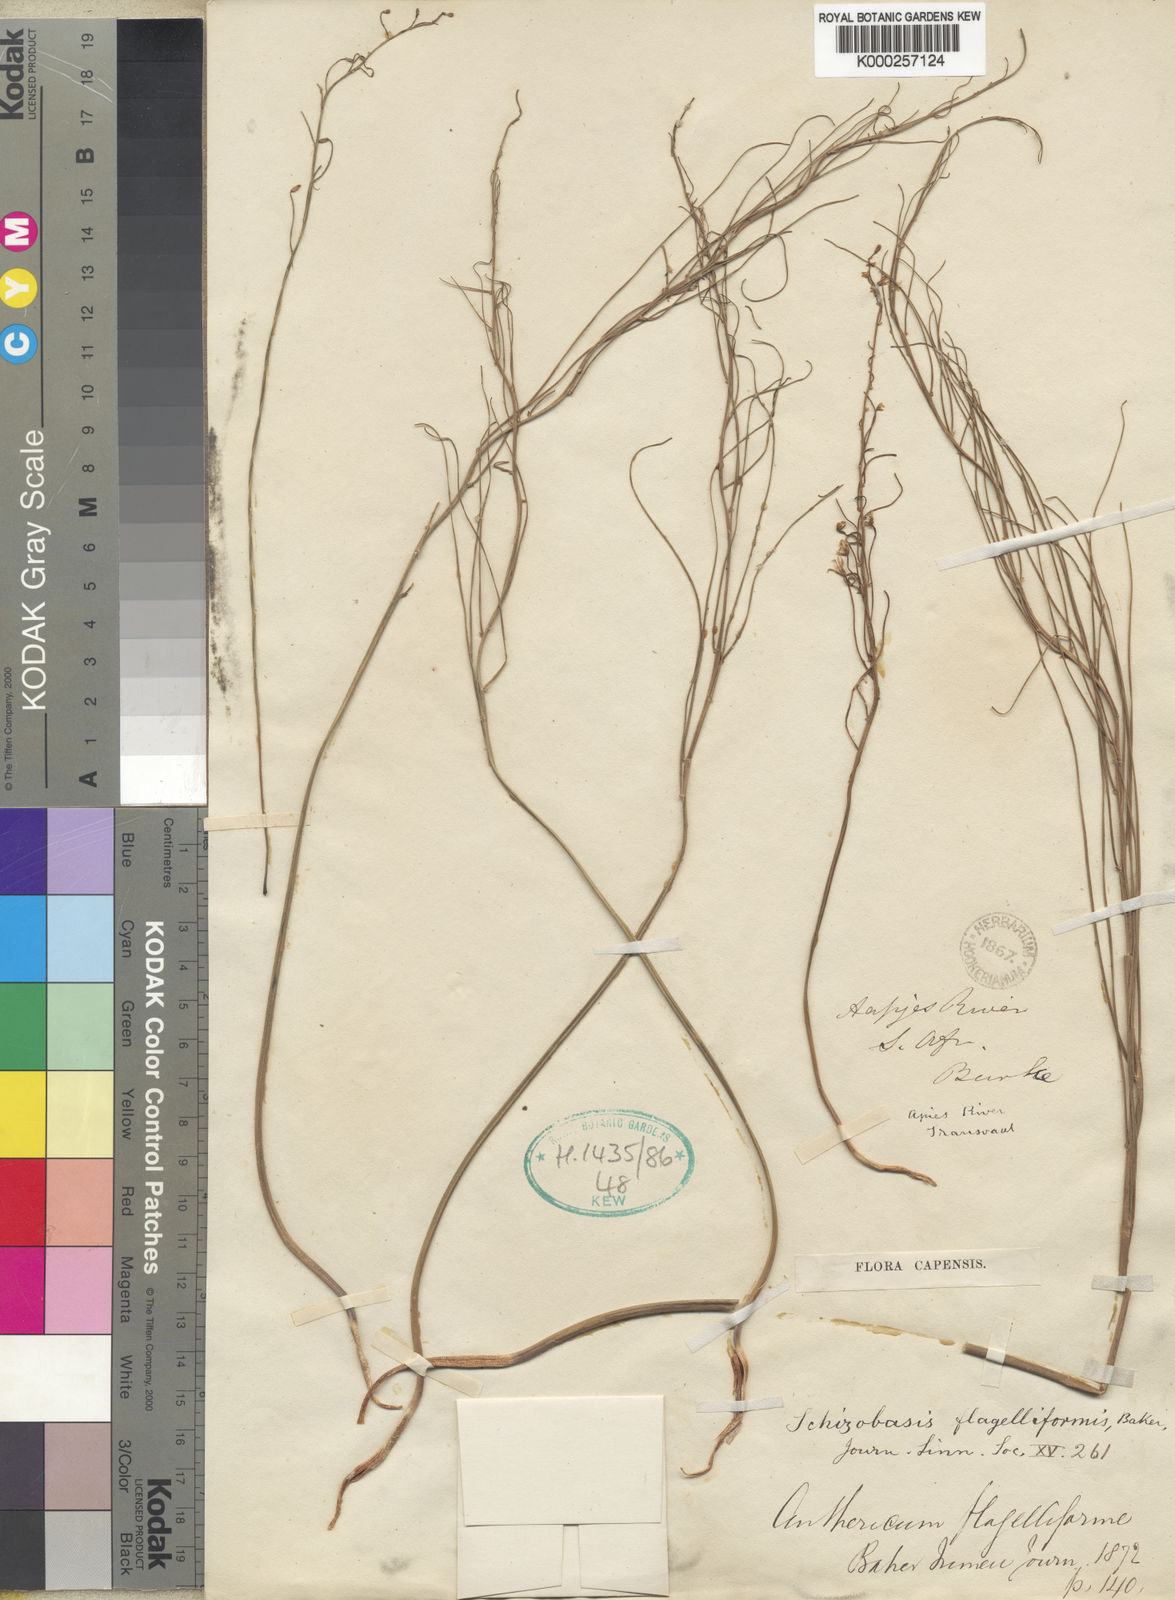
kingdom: Plantae
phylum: Tracheophyta
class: Liliopsida
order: Asparagales
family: Asparagaceae
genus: Eriospermum
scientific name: Eriospermum abyssinicum
